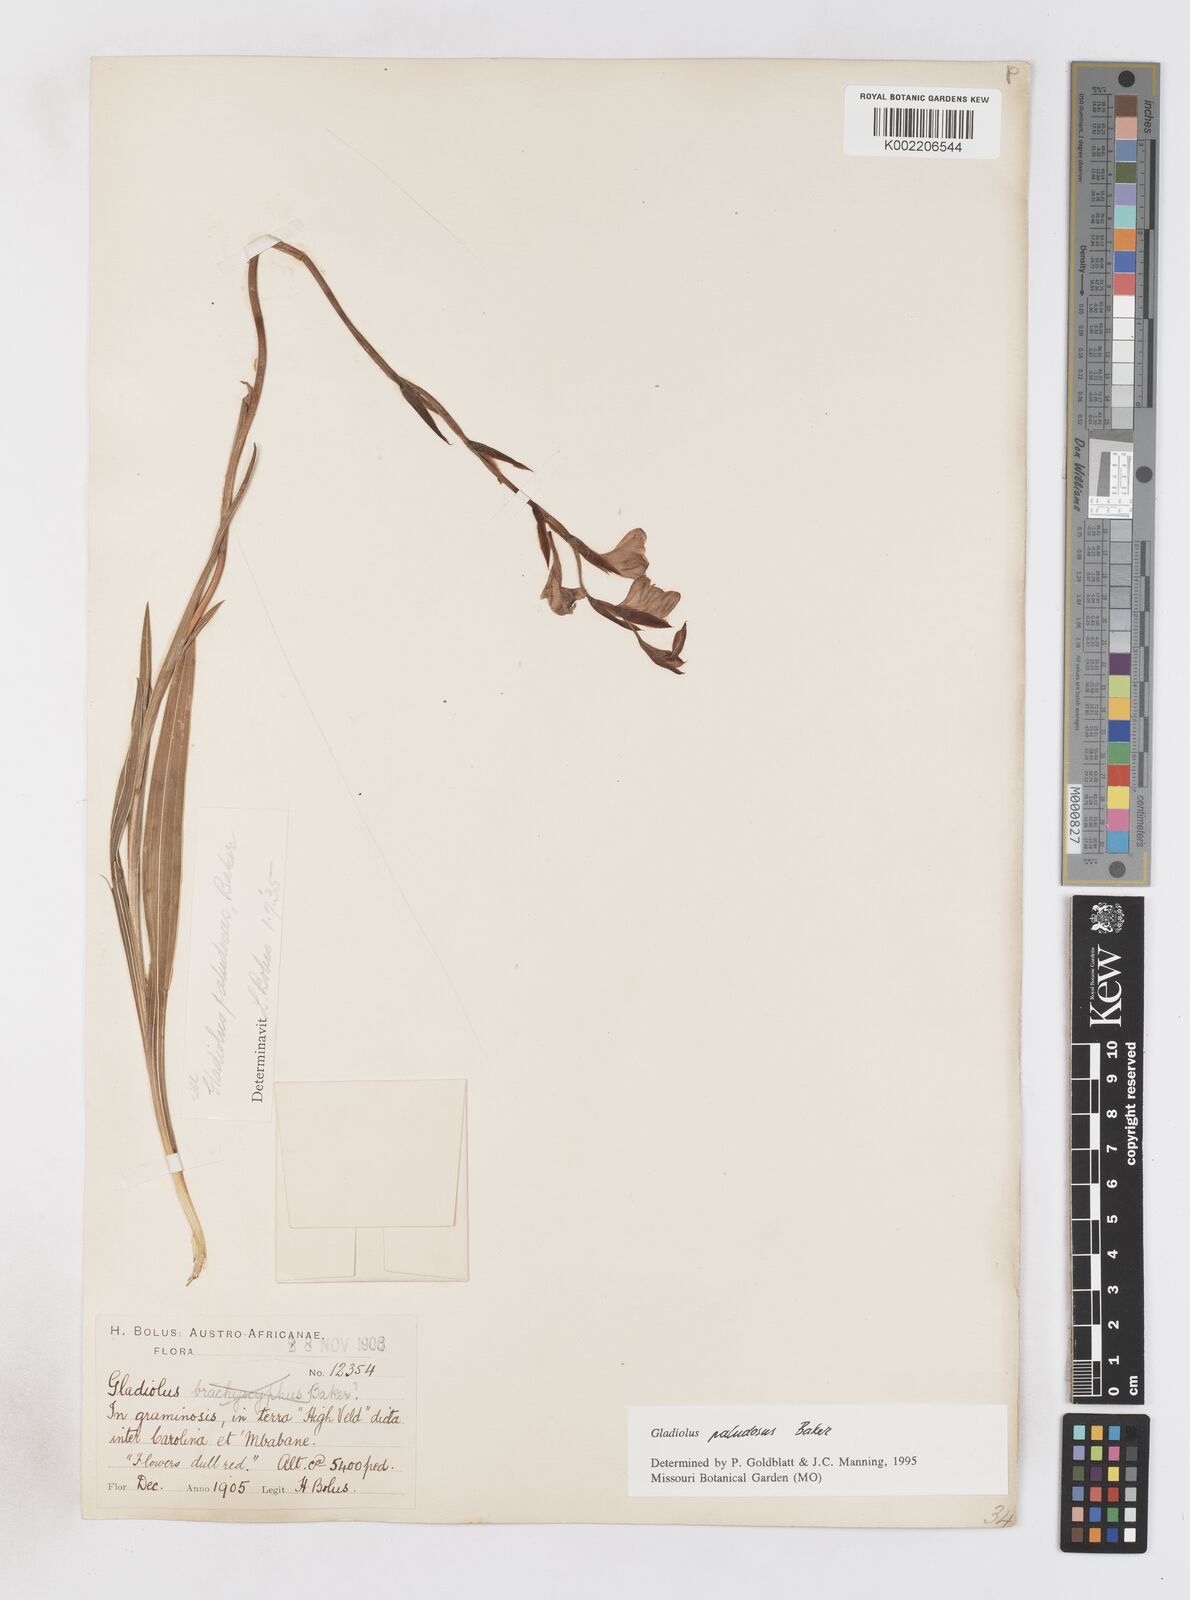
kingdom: Plantae
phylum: Tracheophyta
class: Liliopsida
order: Asparagales
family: Iridaceae
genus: Gladiolus
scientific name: Gladiolus paludosus
